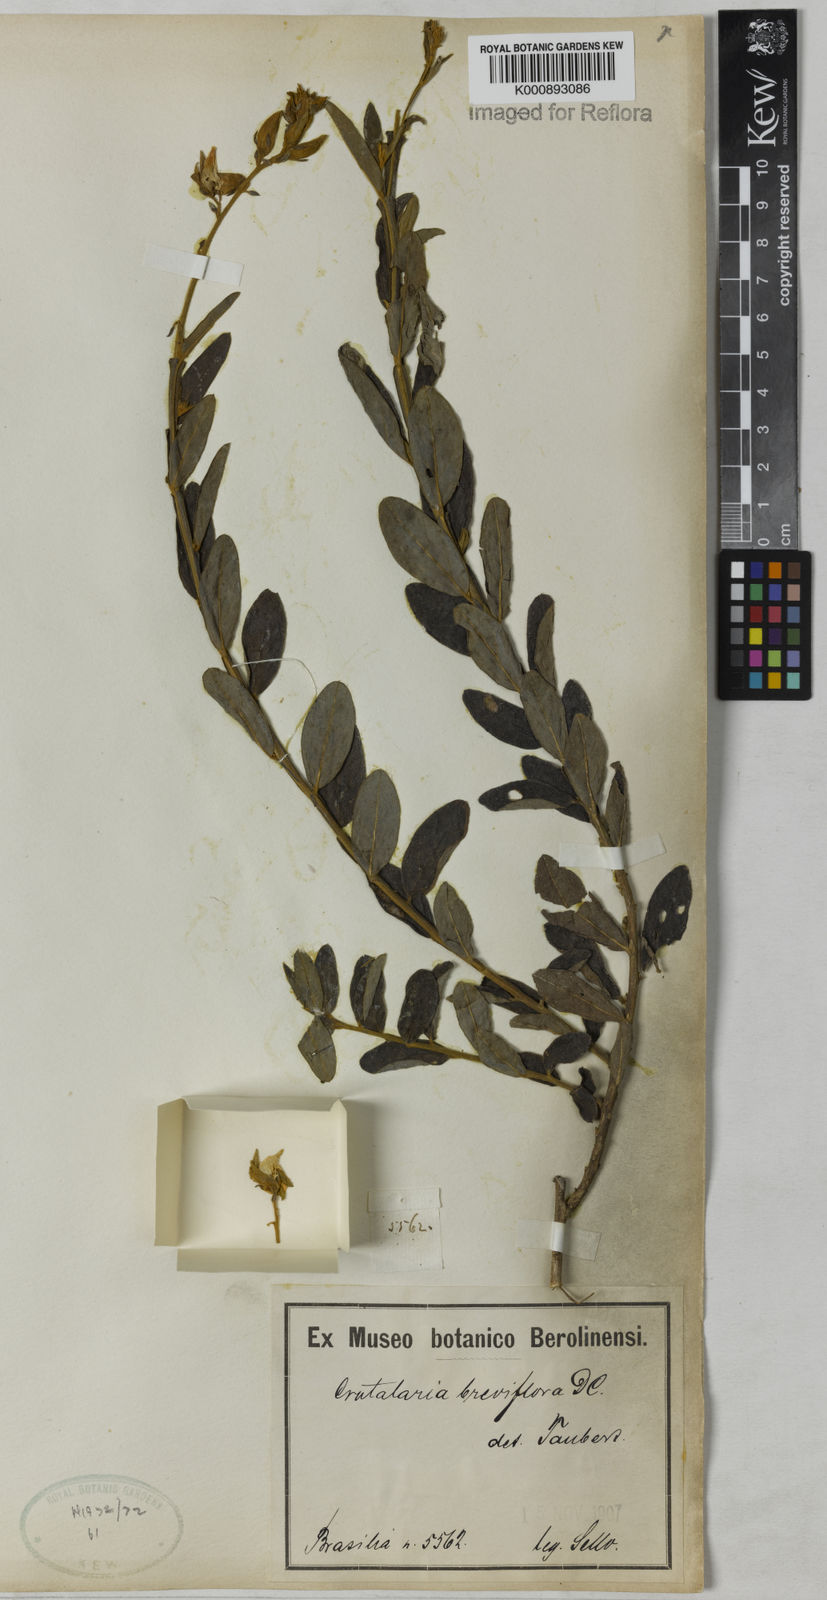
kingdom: Plantae
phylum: Tracheophyta
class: Magnoliopsida
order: Fabales
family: Fabaceae
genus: Crotalaria
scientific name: Crotalaria breviflora
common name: Short-flower crotalaria
